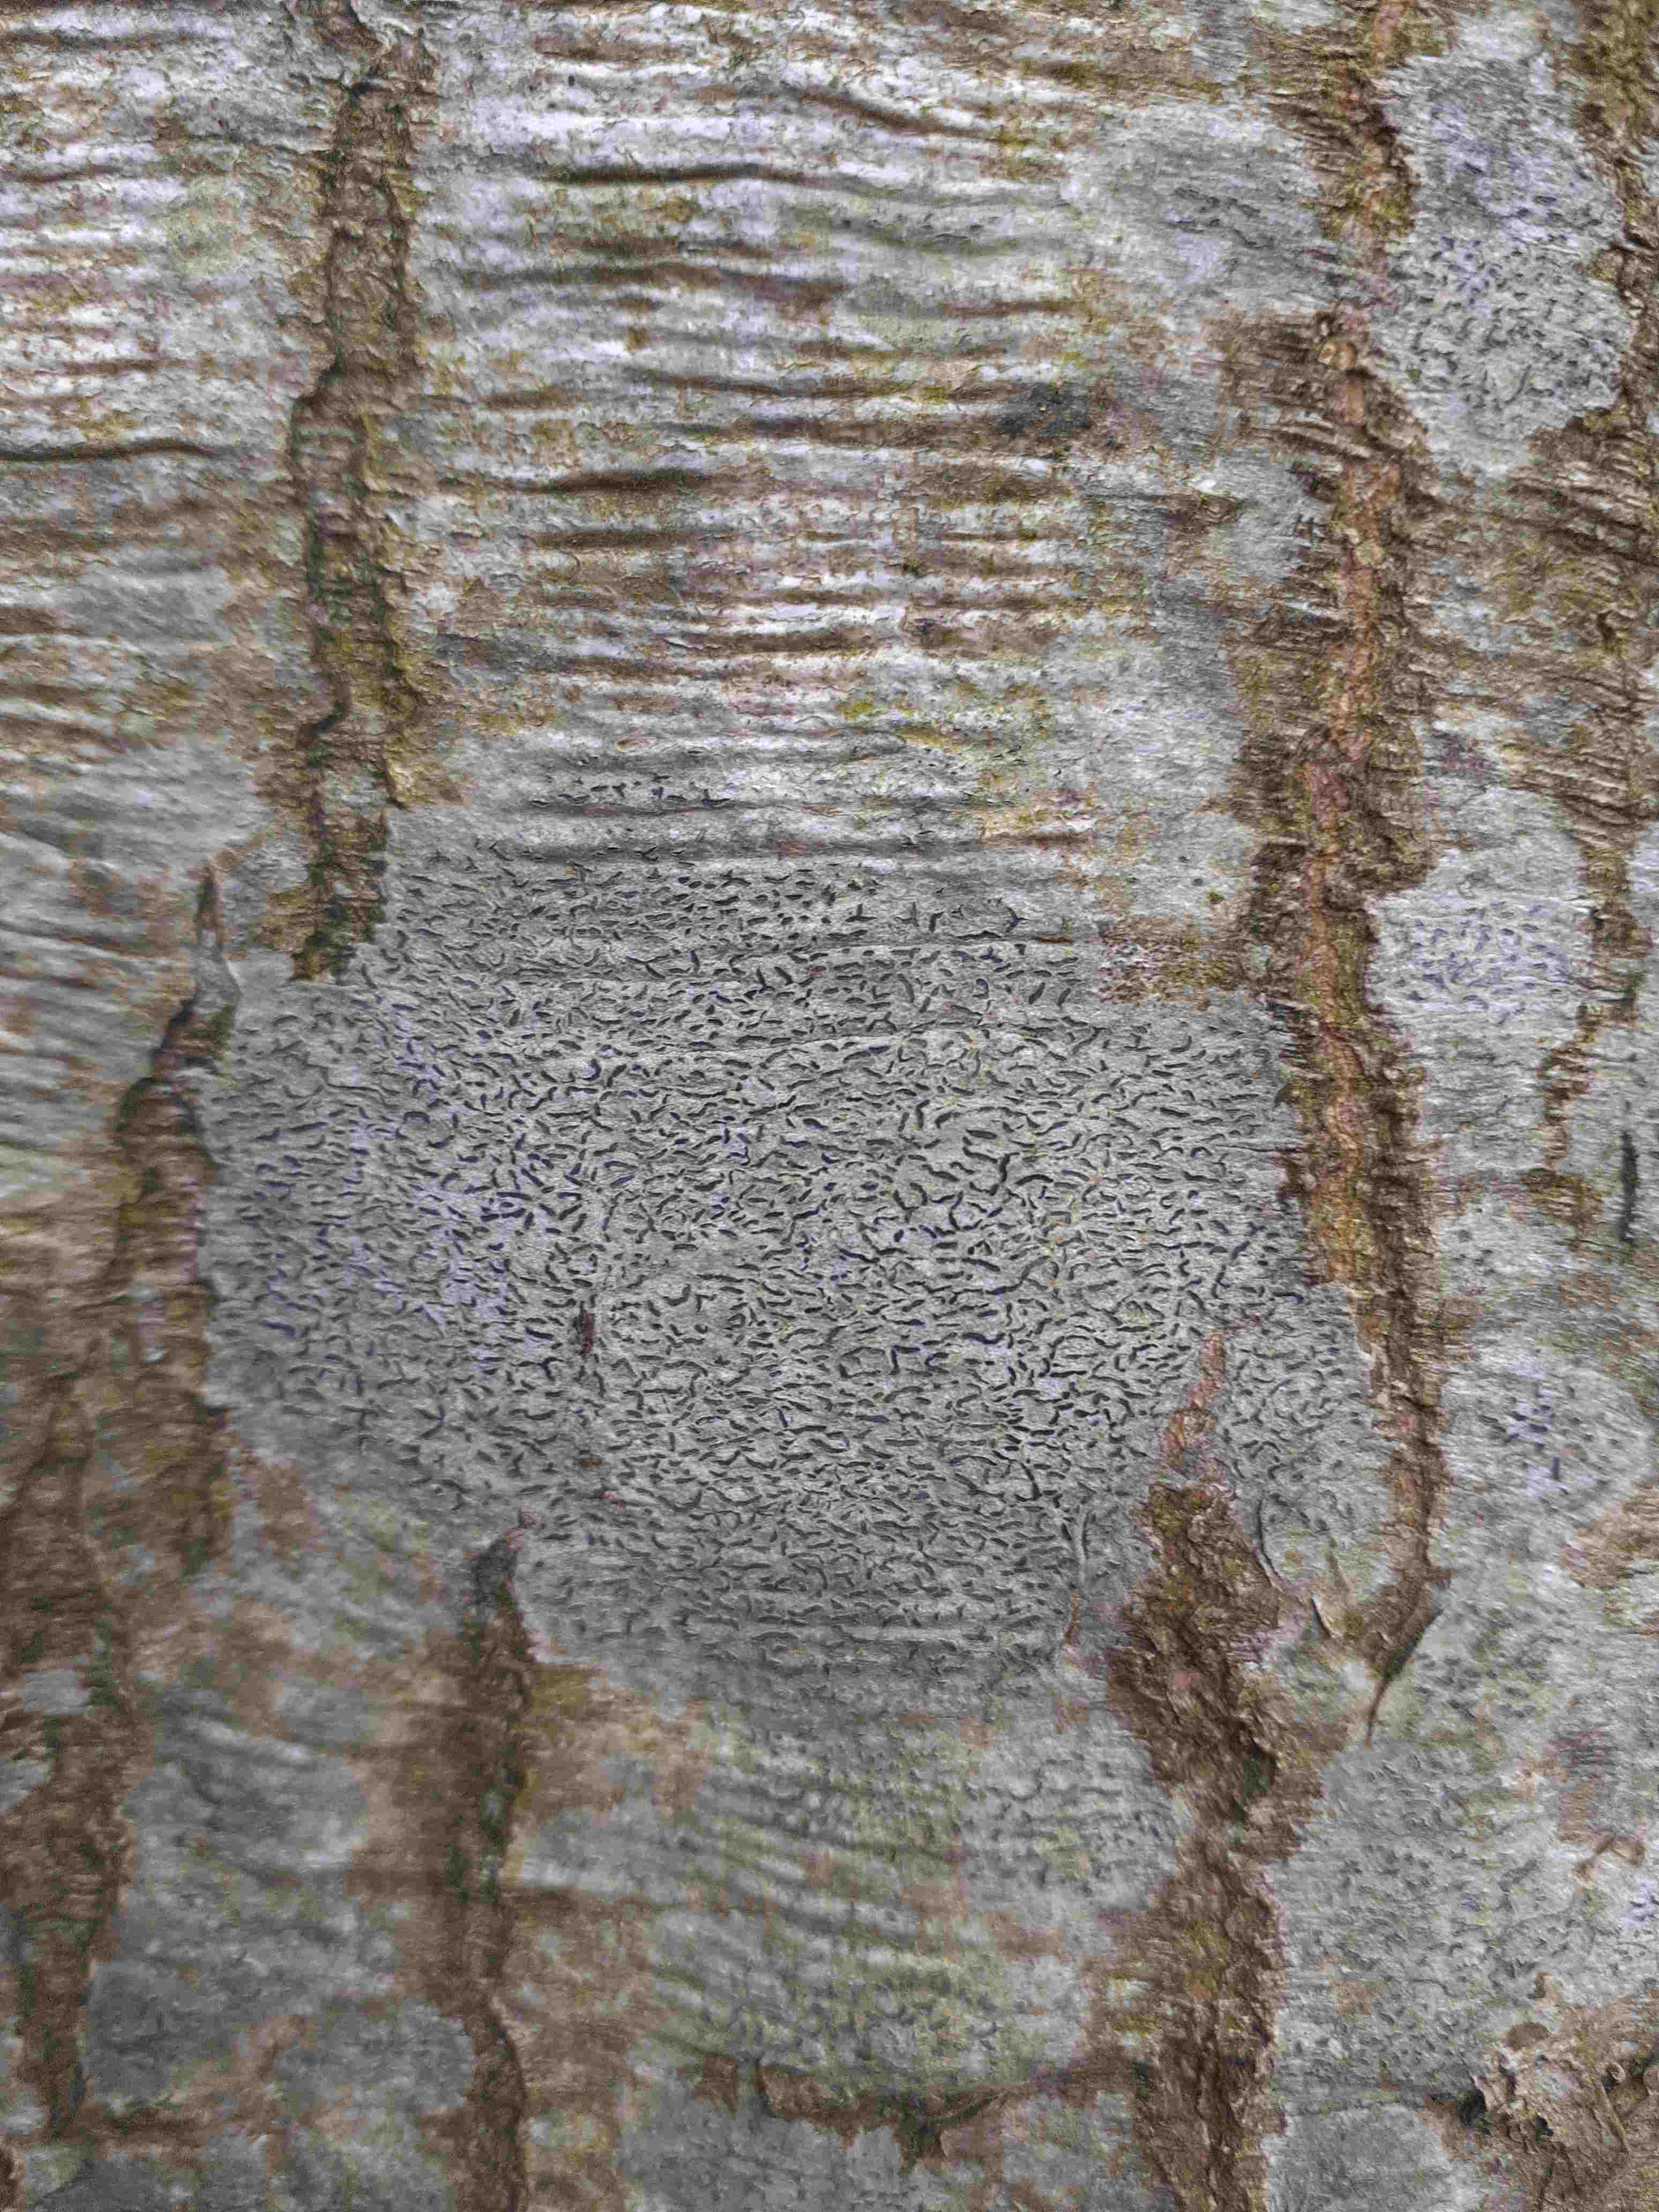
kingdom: Fungi
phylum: Ascomycota
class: Lecanoromycetes
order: Ostropales
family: Graphidaceae
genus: Graphis
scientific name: Graphis scripta
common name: almindelig skriftlav
